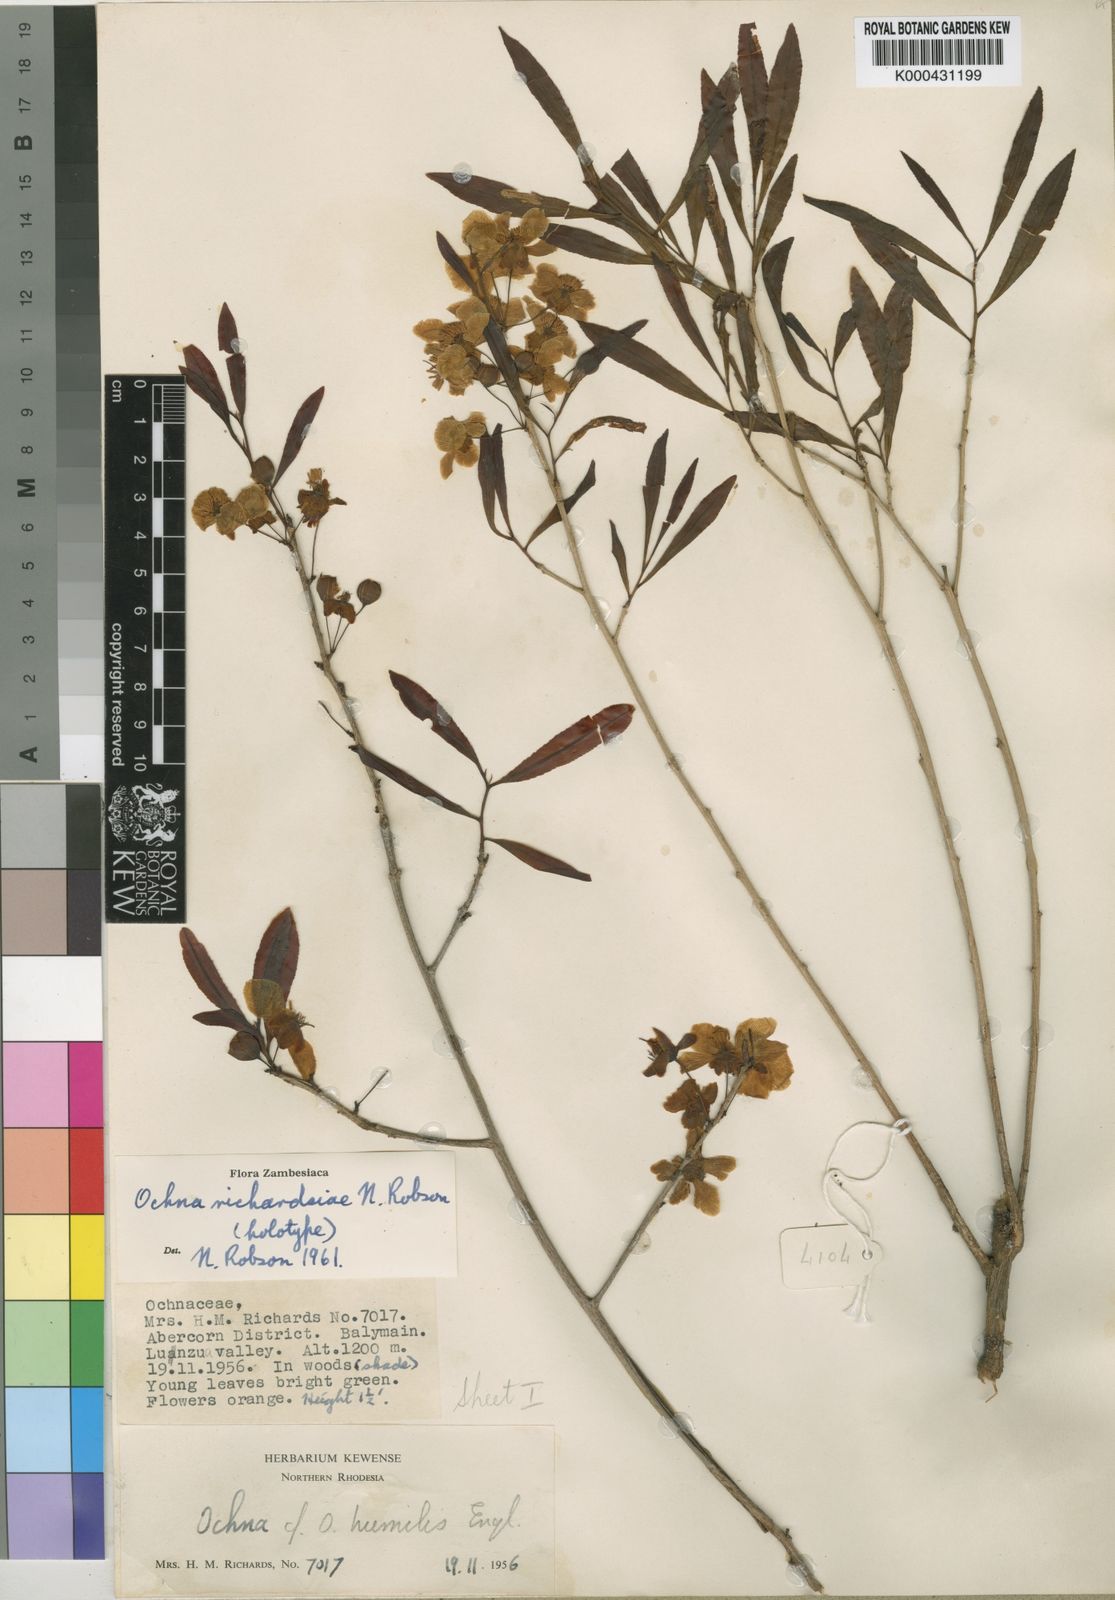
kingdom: Plantae
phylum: Tracheophyta
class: Magnoliopsida
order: Malpighiales
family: Ochnaceae
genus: Ochna
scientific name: Ochna richardsiae
